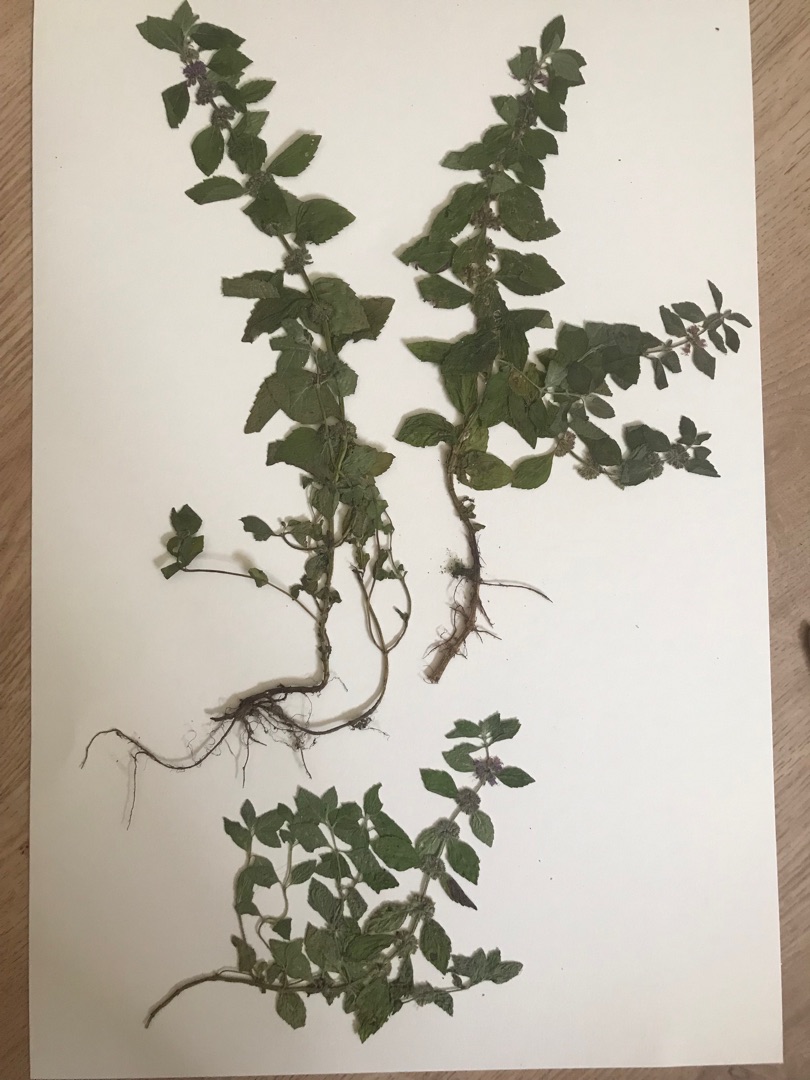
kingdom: Plantae
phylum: Tracheophyta
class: Magnoliopsida
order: Lamiales
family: Lamiaceae
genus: Mentha
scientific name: Mentha arvensis
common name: Ager-mynte
